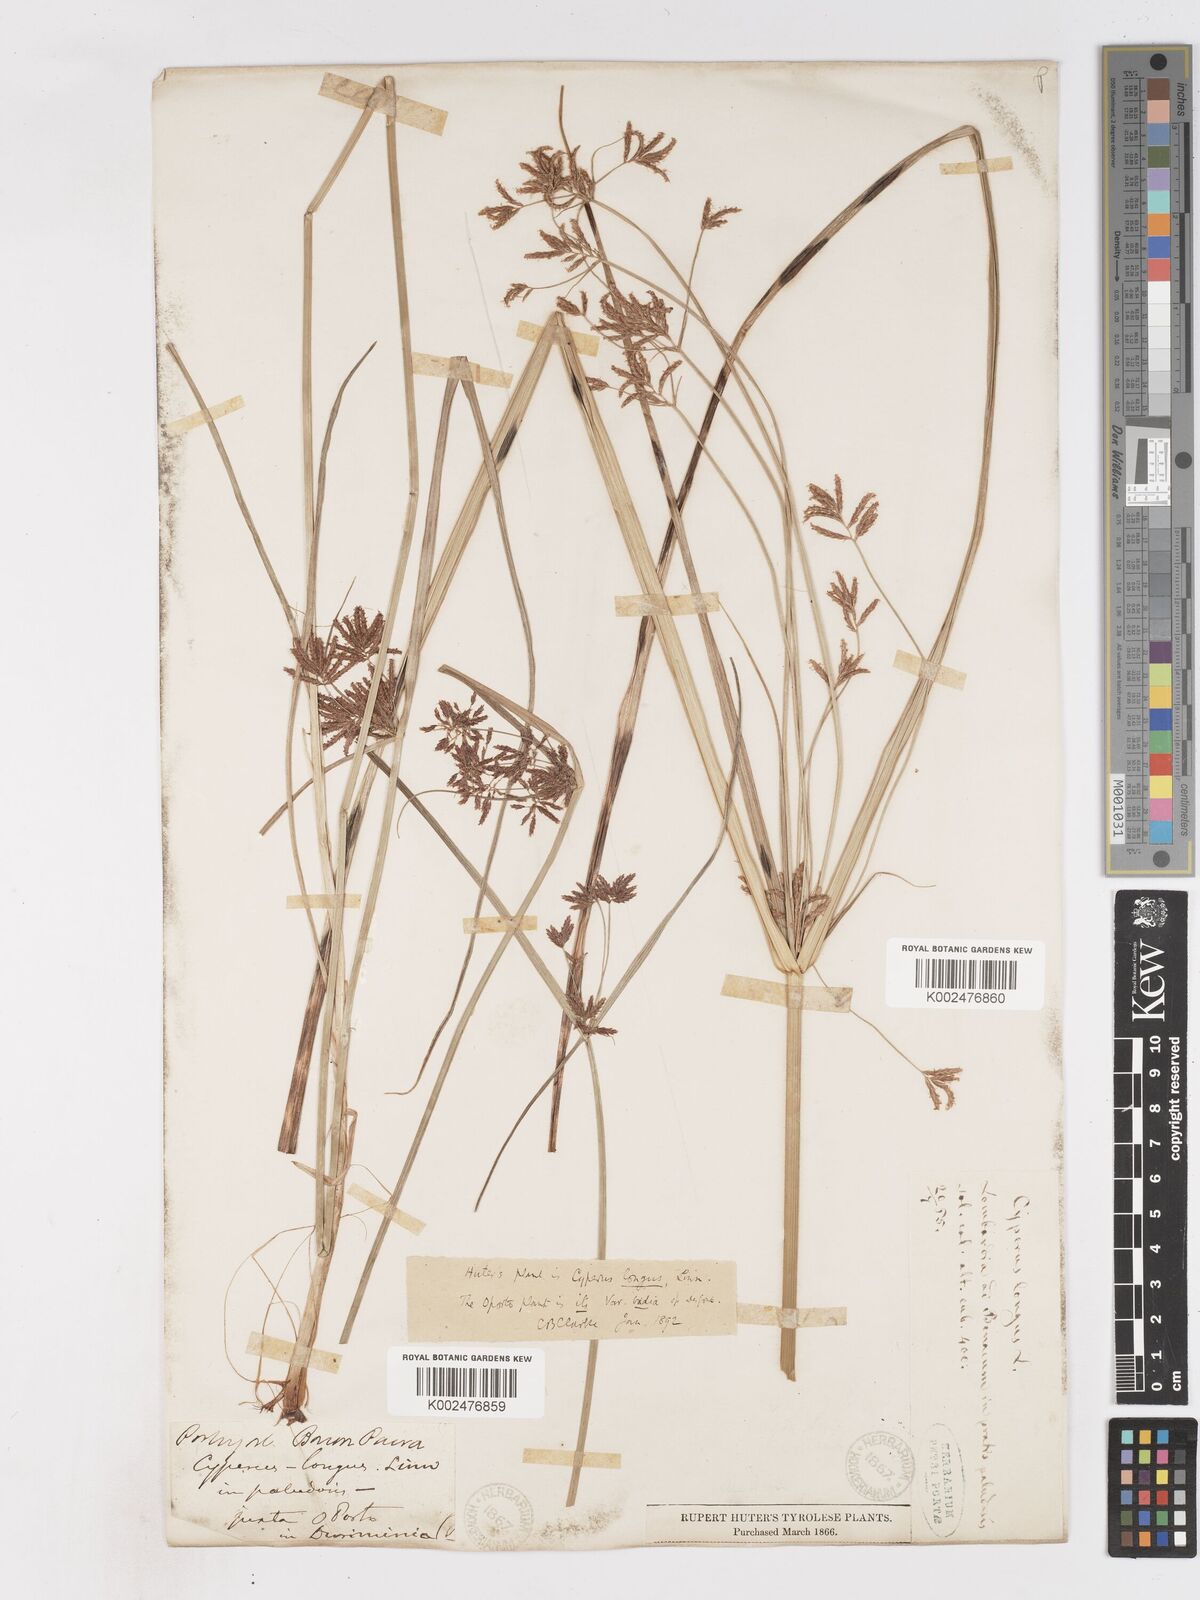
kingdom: Plantae
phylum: Tracheophyta
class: Liliopsida
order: Poales
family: Cyperaceae
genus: Cyperus
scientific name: Cyperus longus
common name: Galingale
